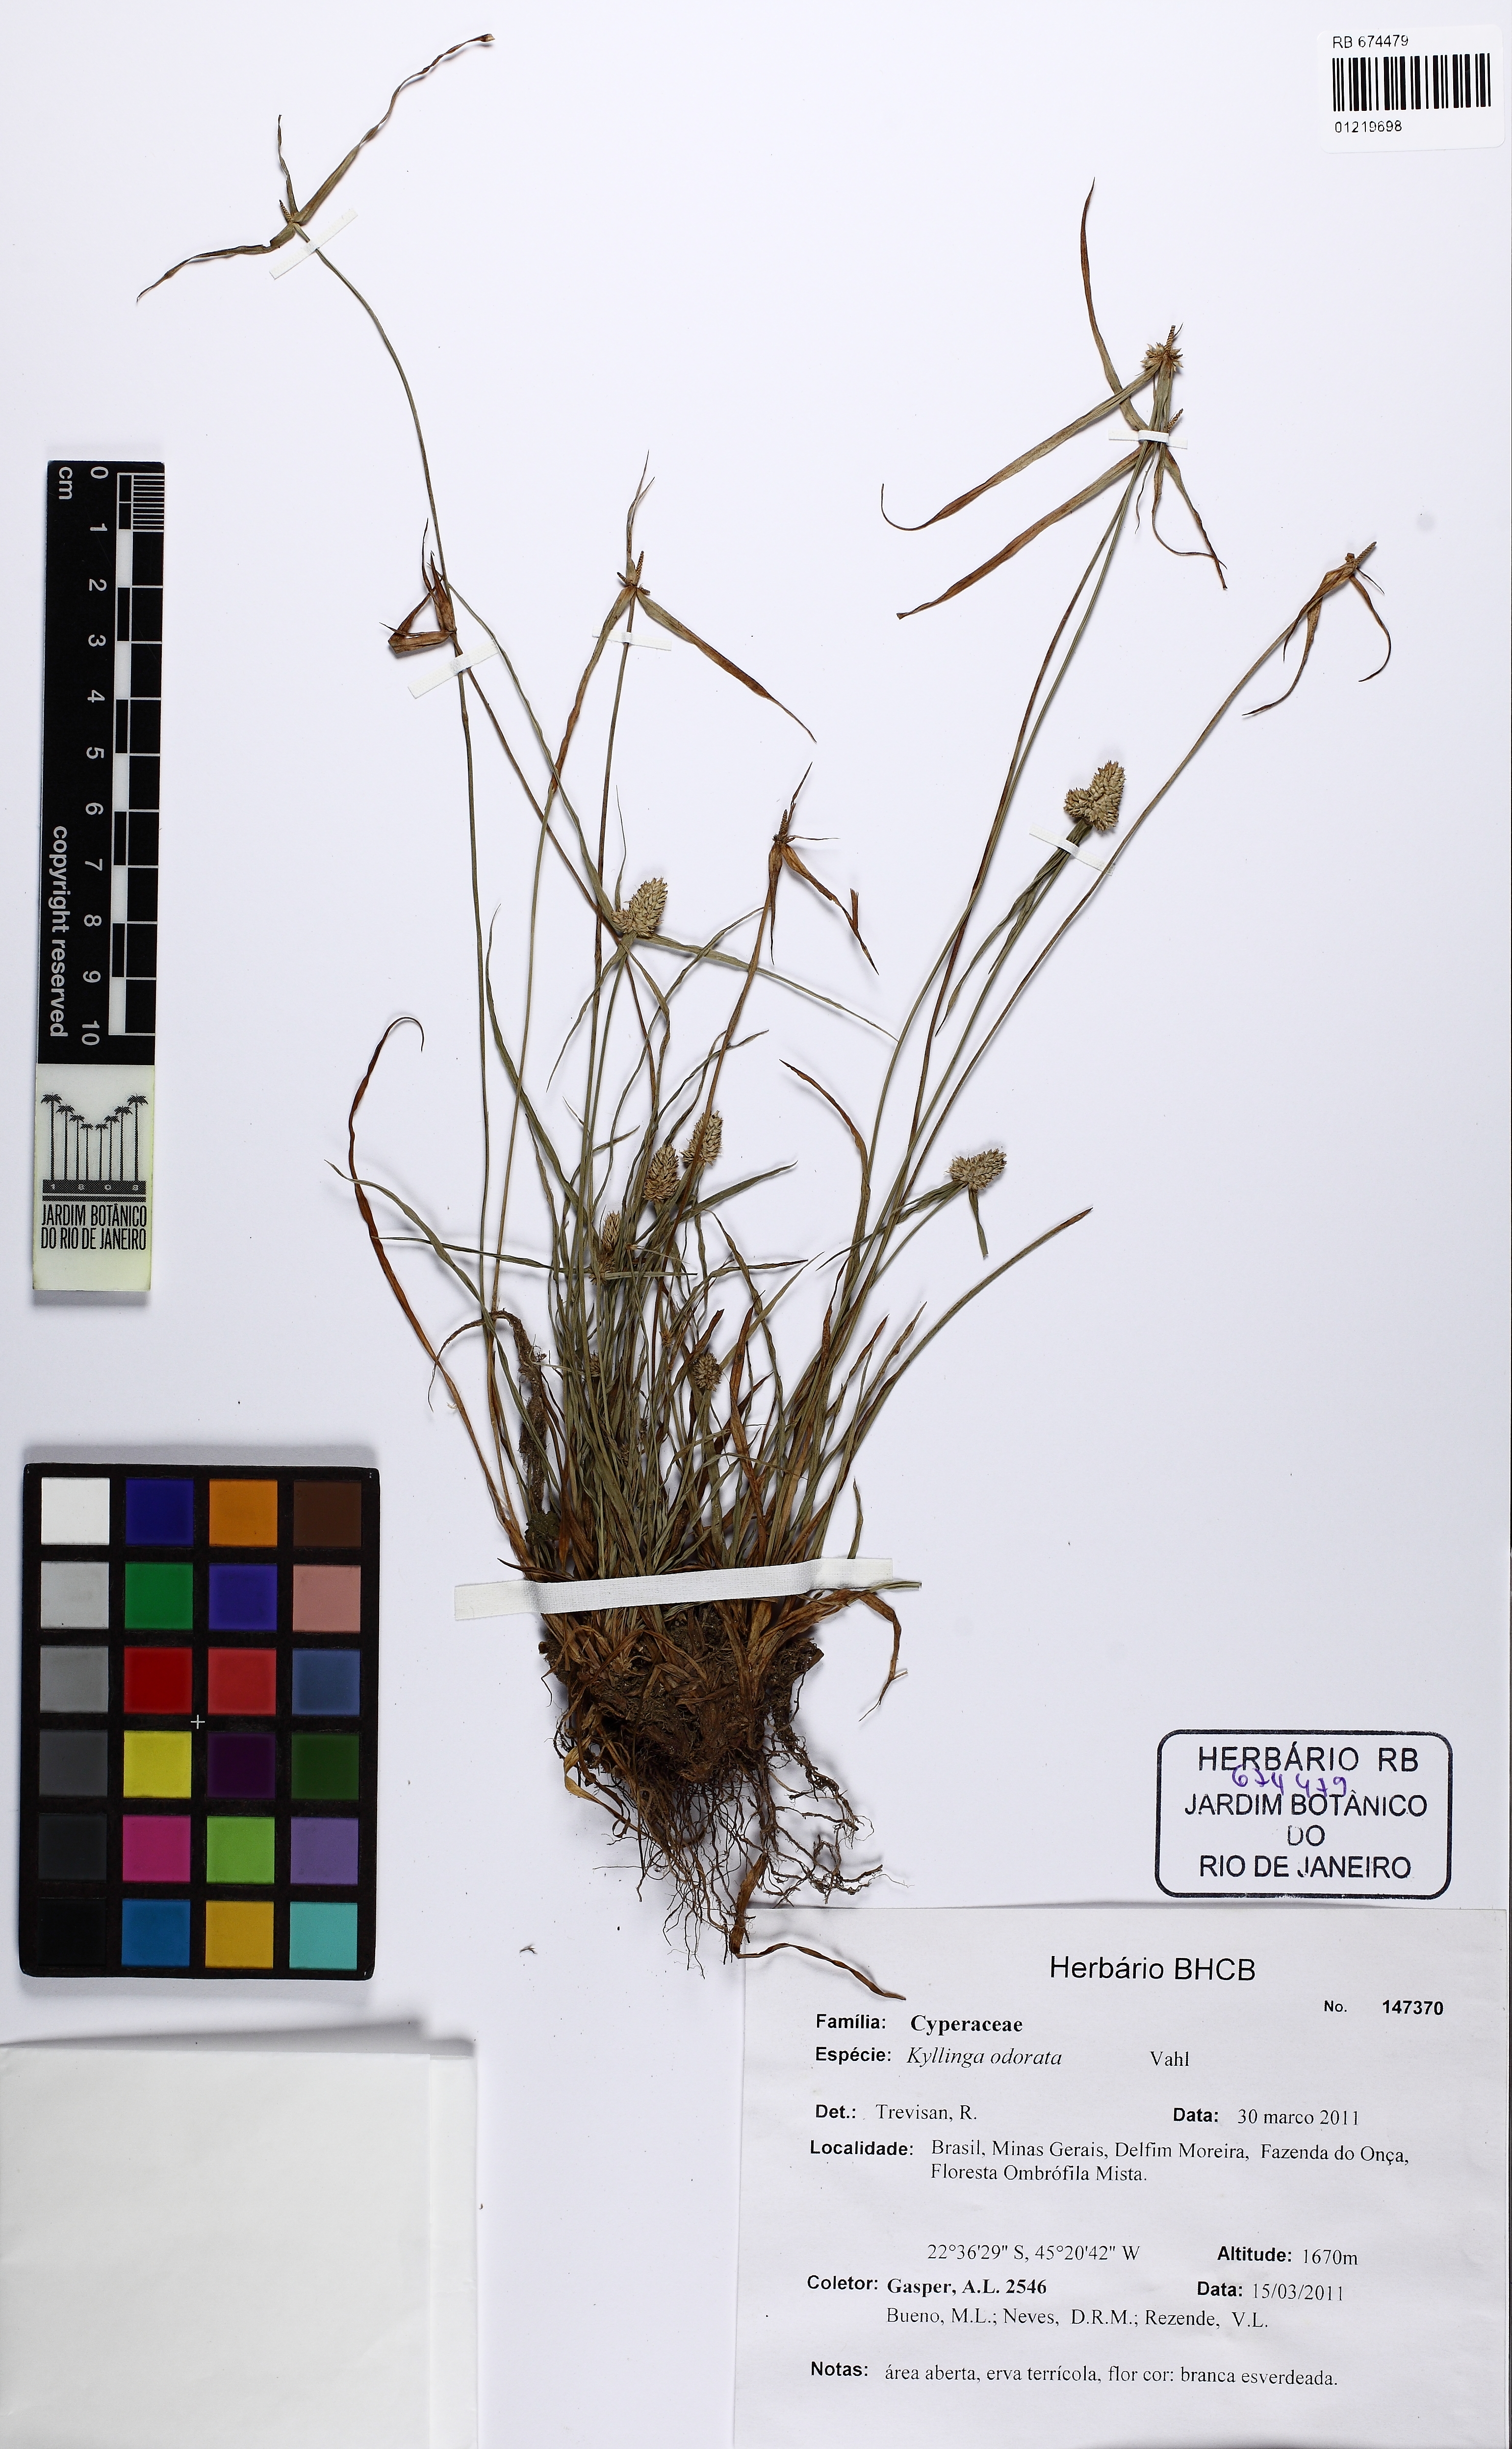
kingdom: Plantae
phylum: Tracheophyta
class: Liliopsida
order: Poales
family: Cyperaceae
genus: Cyperus
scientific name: Cyperus sesquiflorus
